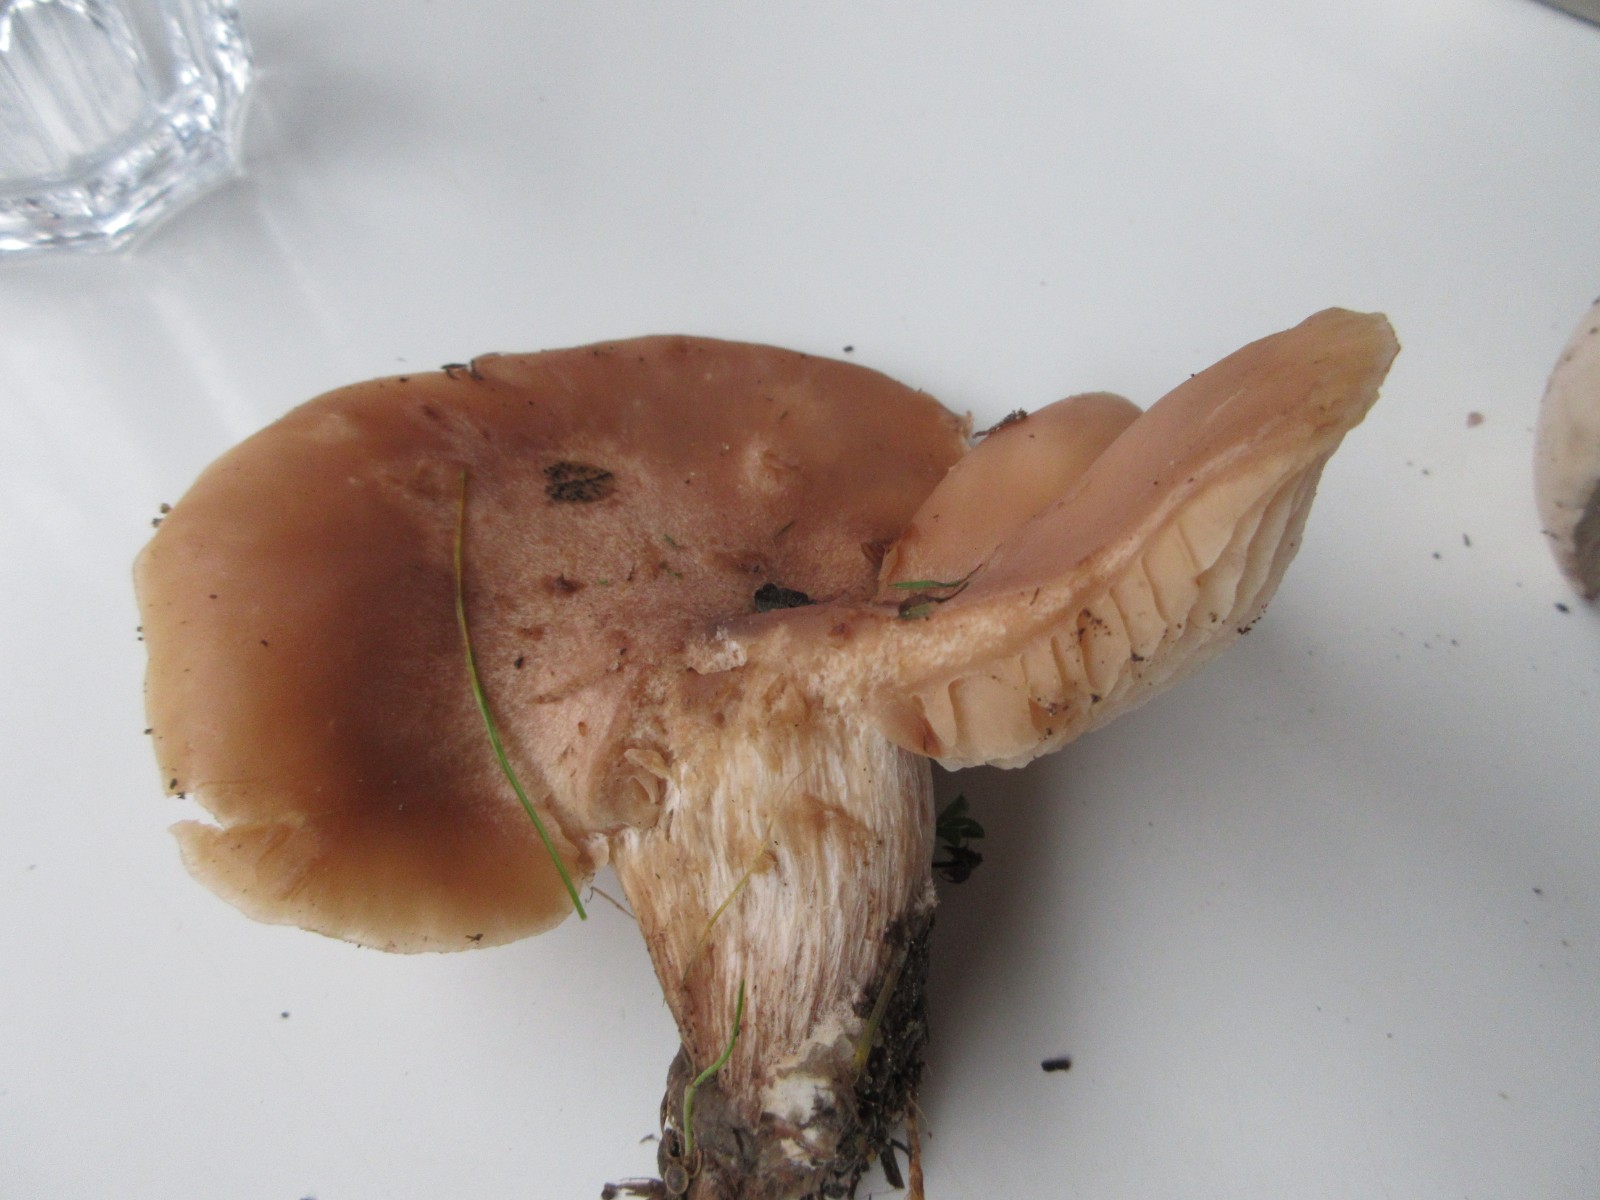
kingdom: Fungi
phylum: Basidiomycota
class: Agaricomycetes
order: Agaricales
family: Tricholomataceae
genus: Lepista
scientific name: Lepista irina
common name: violduftende hekseringshat
